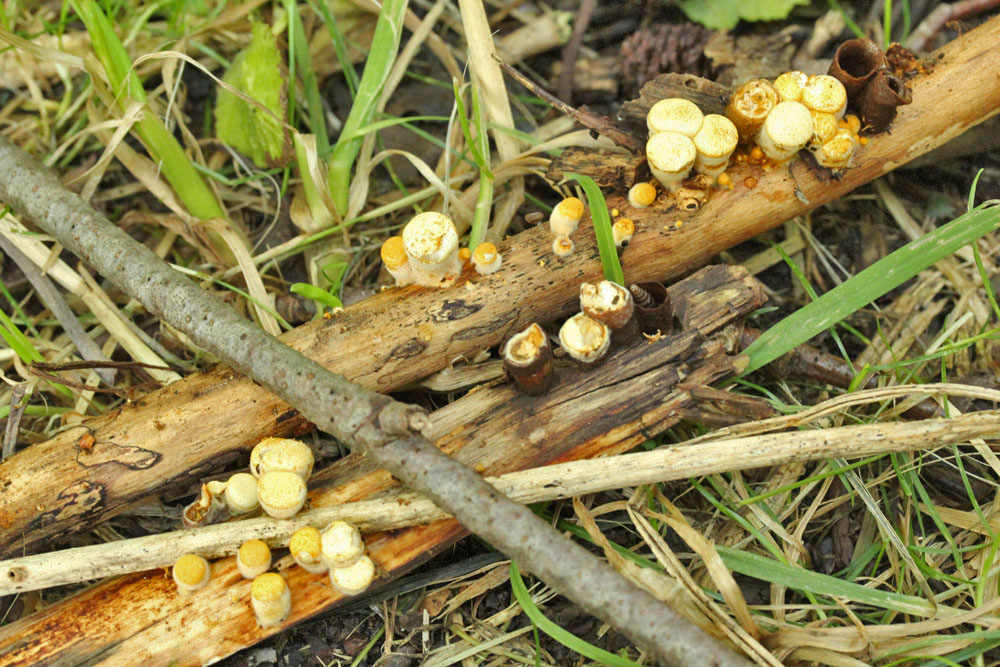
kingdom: Fungi
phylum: Basidiomycota
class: Agaricomycetes
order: Agaricales
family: Nidulariaceae
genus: Crucibulum
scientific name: Crucibulum crucibuliforme
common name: krukkesvamp
